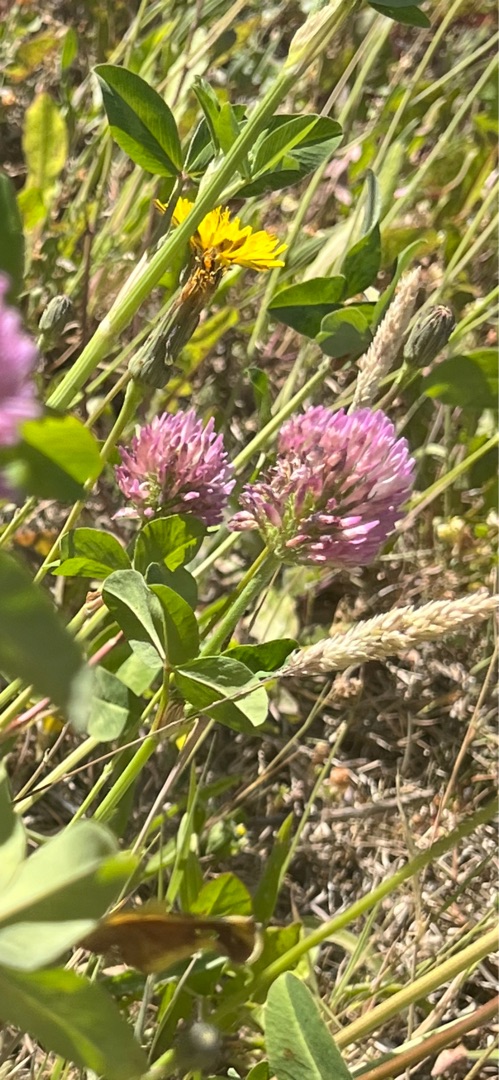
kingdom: Plantae
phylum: Tracheophyta
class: Magnoliopsida
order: Fabales
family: Fabaceae
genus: Trifolium
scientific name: Trifolium pratense
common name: Rød-kløver
